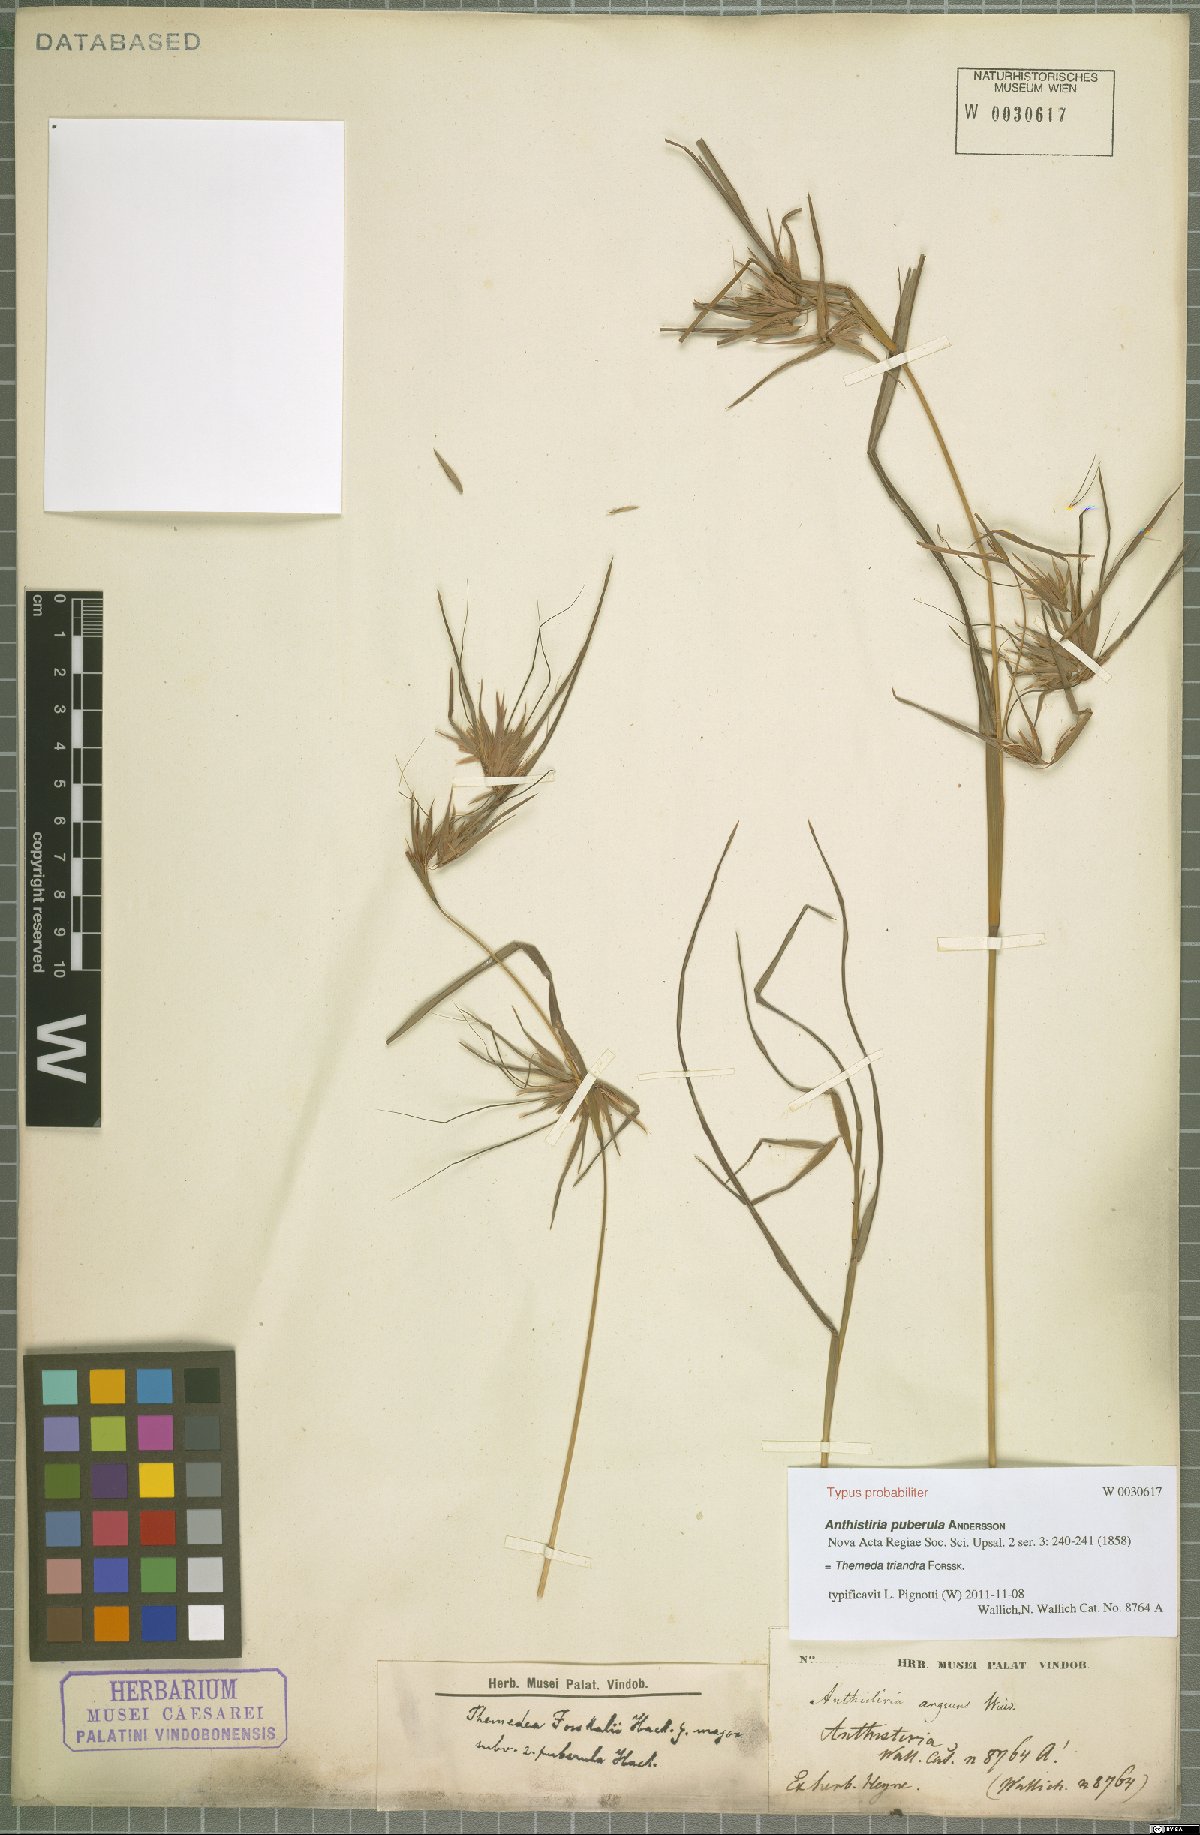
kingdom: Plantae
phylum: Tracheophyta
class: Liliopsida
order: Poales
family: Poaceae
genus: Themeda
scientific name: Themeda triandra
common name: Kangaroo grass
